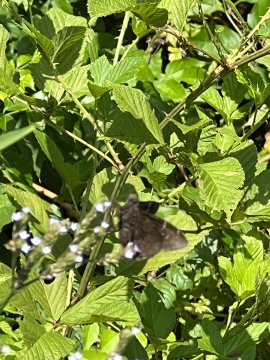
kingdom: Animalia
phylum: Arthropoda
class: Insecta
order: Lepidoptera
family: Hesperiidae
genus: Autochton
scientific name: Autochton
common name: Northern Cloudywing
